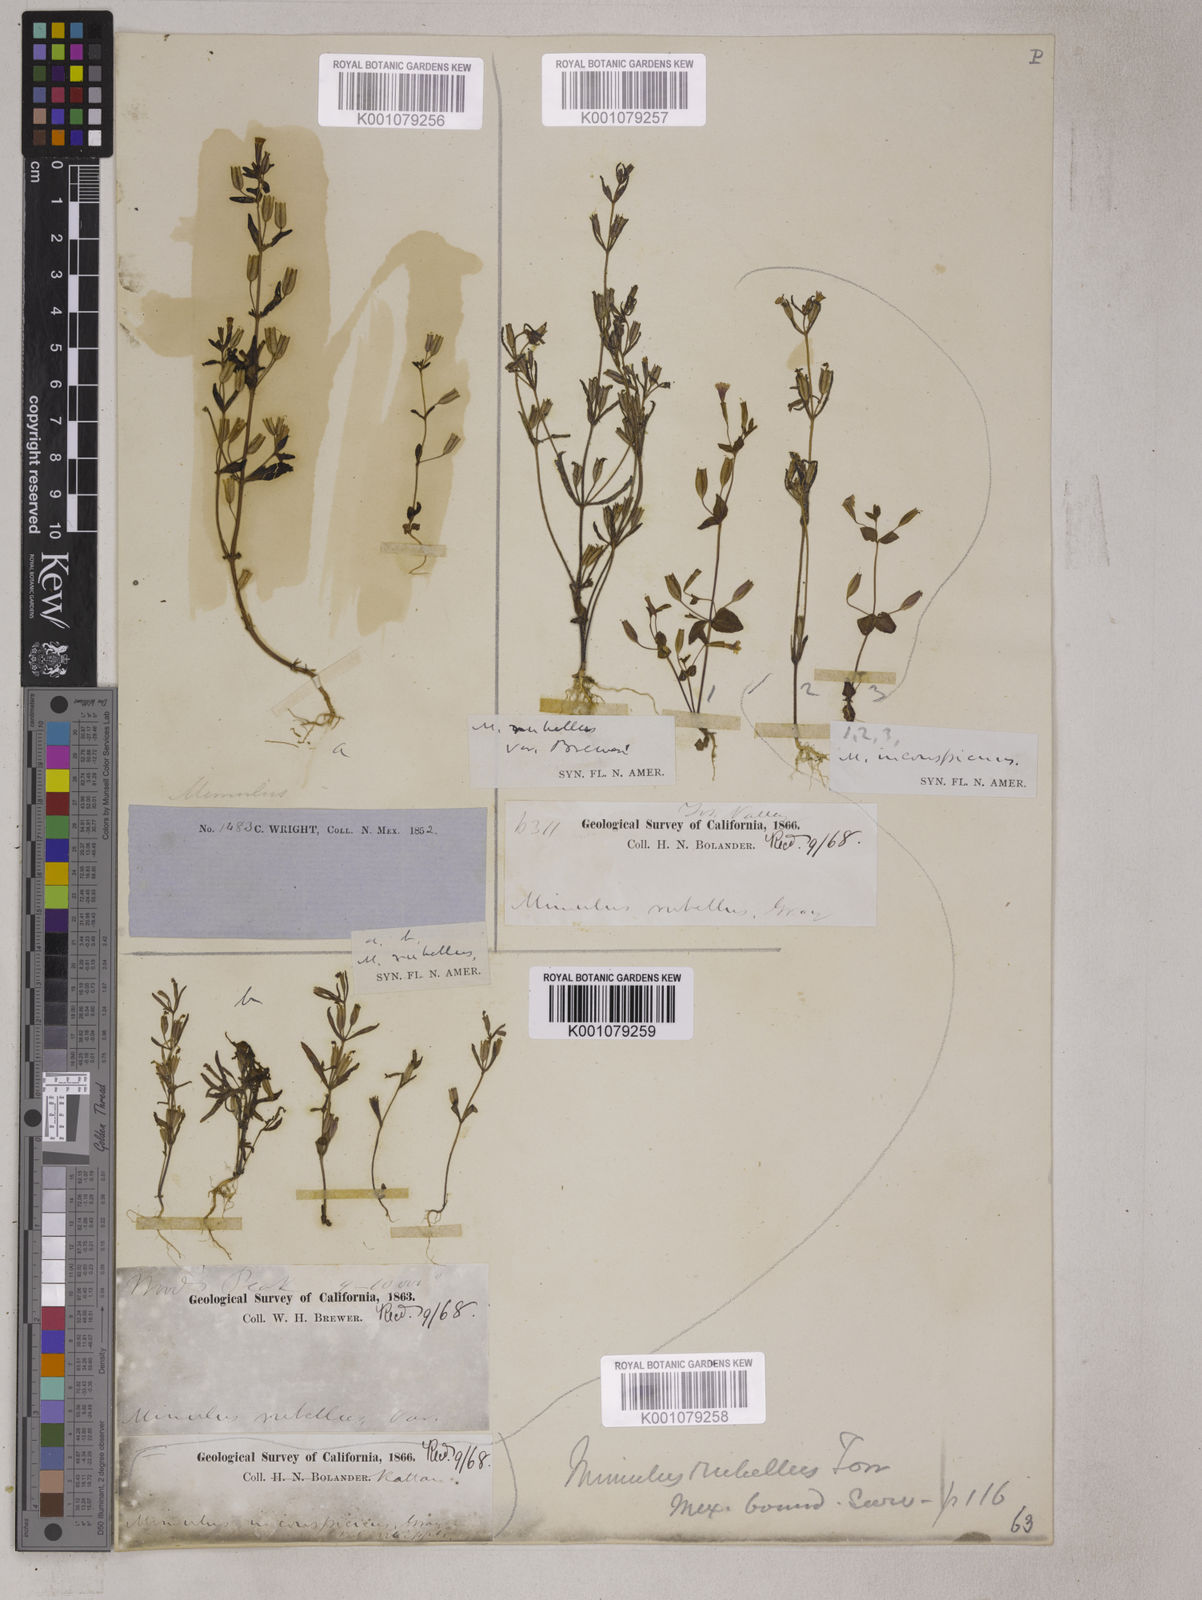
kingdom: Plantae
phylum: Tracheophyta
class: Magnoliopsida
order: Lamiales
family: Phrymaceae
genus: Erythranthe
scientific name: Erythranthe rubella
